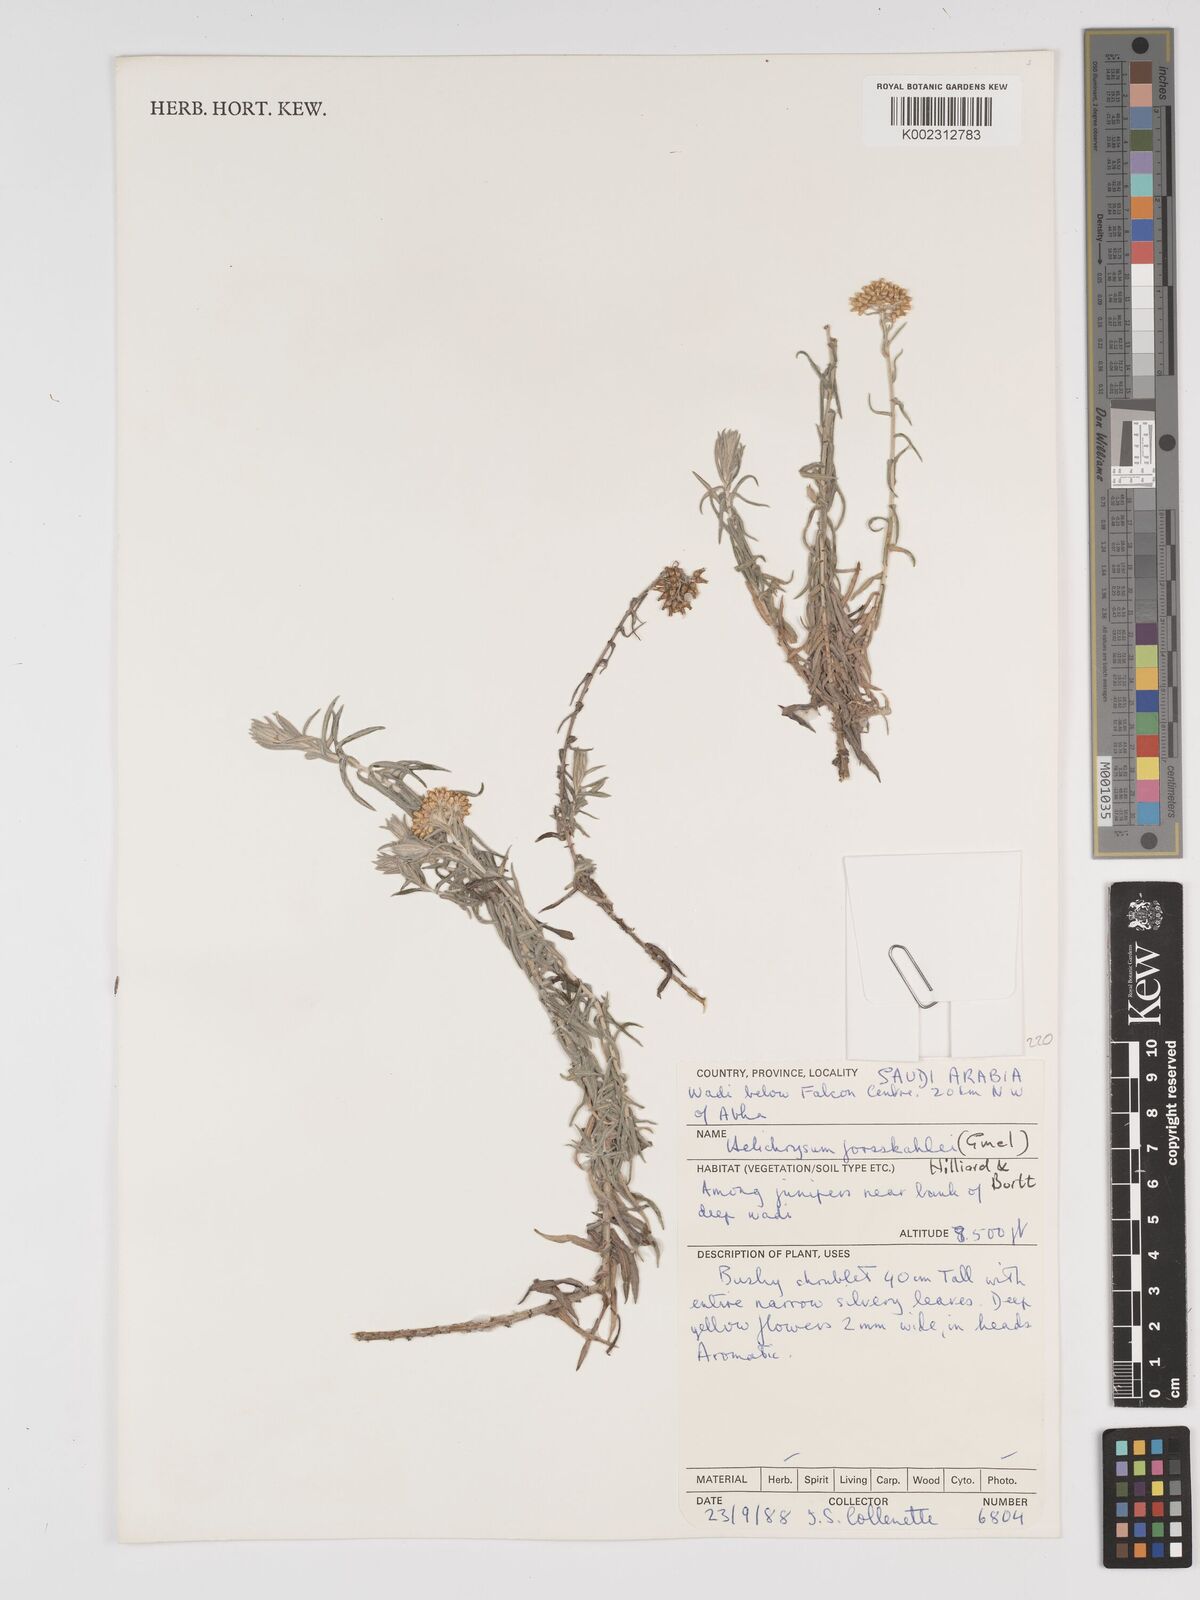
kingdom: Plantae
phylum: Tracheophyta
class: Magnoliopsida
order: Asterales
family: Asteraceae
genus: Helichrysum
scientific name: Helichrysum forskahlii
